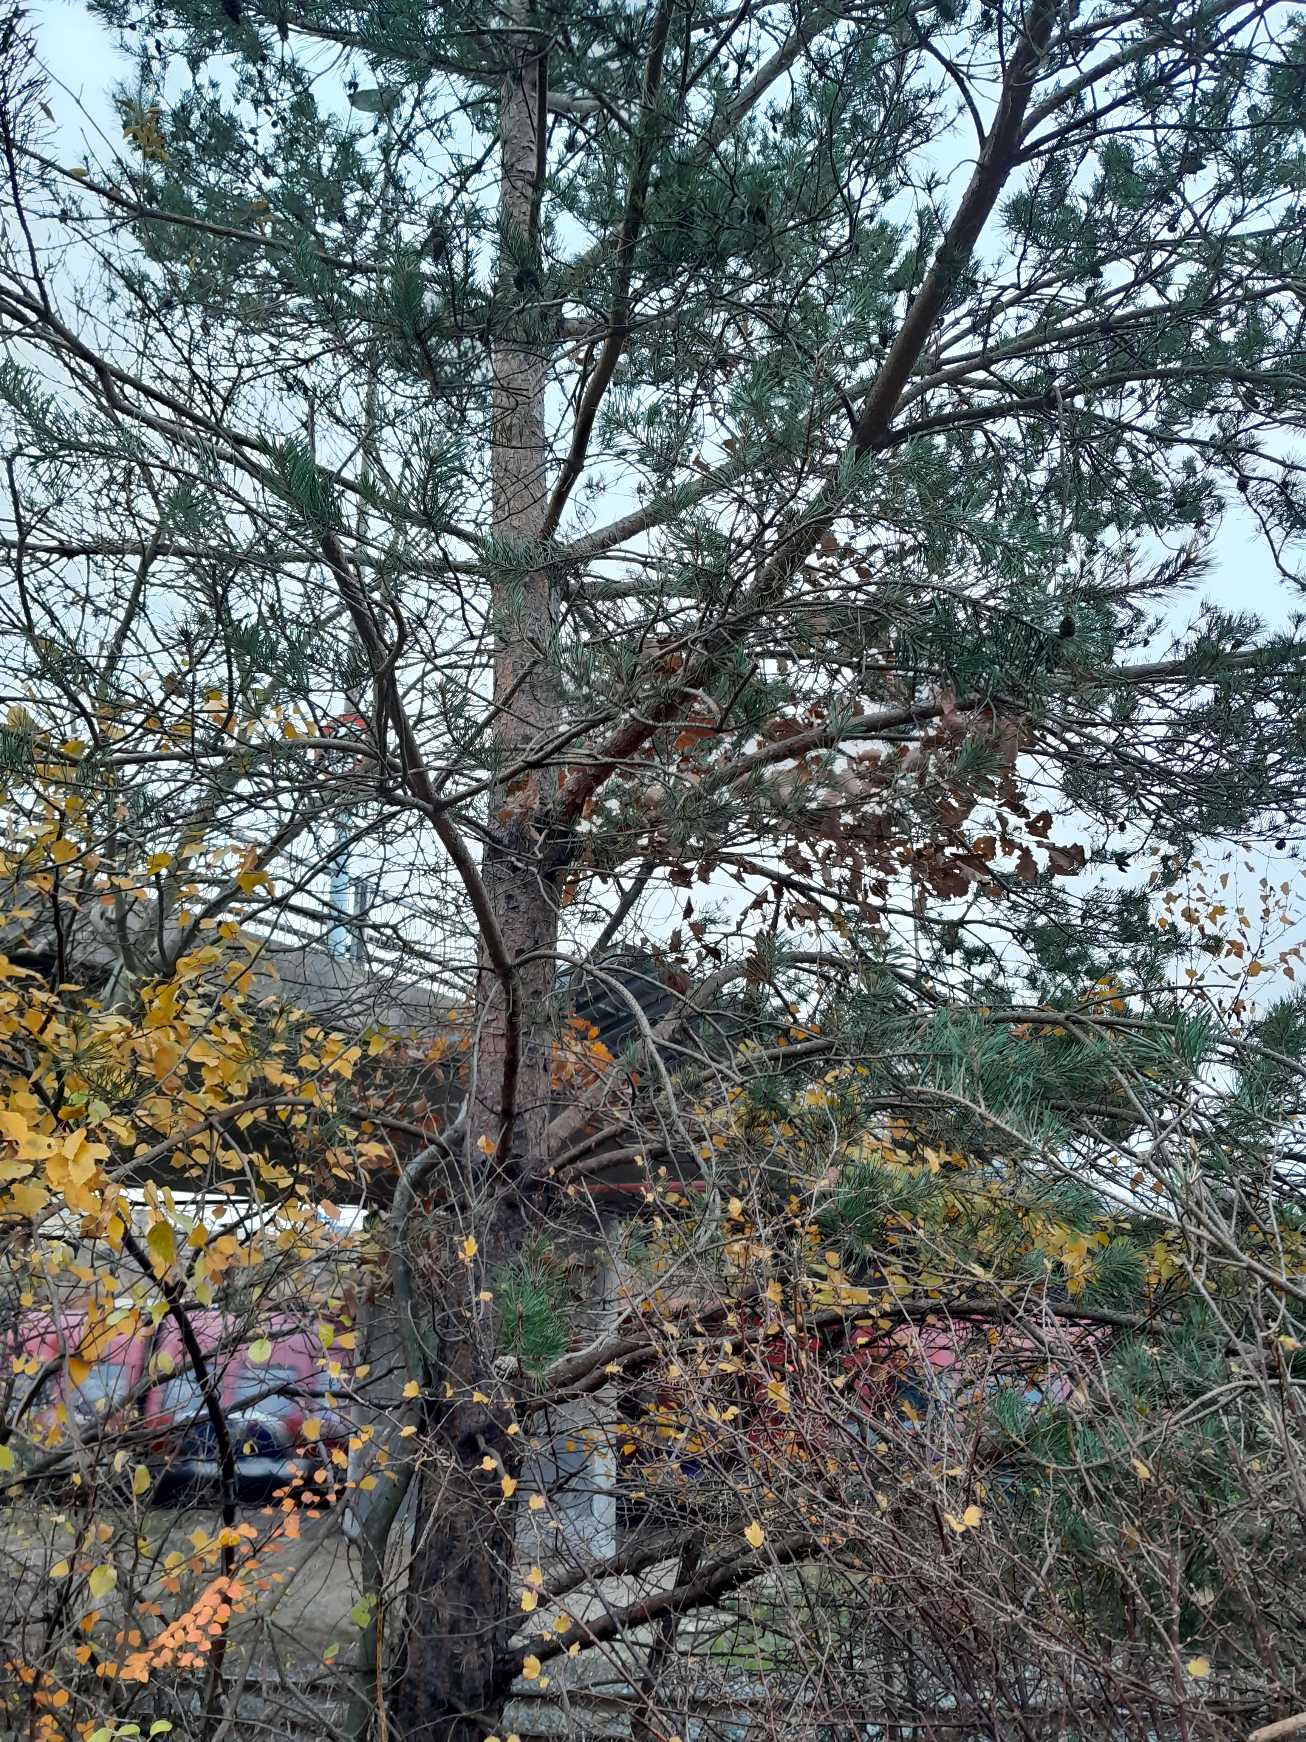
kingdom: Plantae
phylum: Tracheophyta
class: Magnoliopsida
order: Fagales
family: Fagaceae
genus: Quercus
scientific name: Quercus petraea
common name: Vinter-eg
